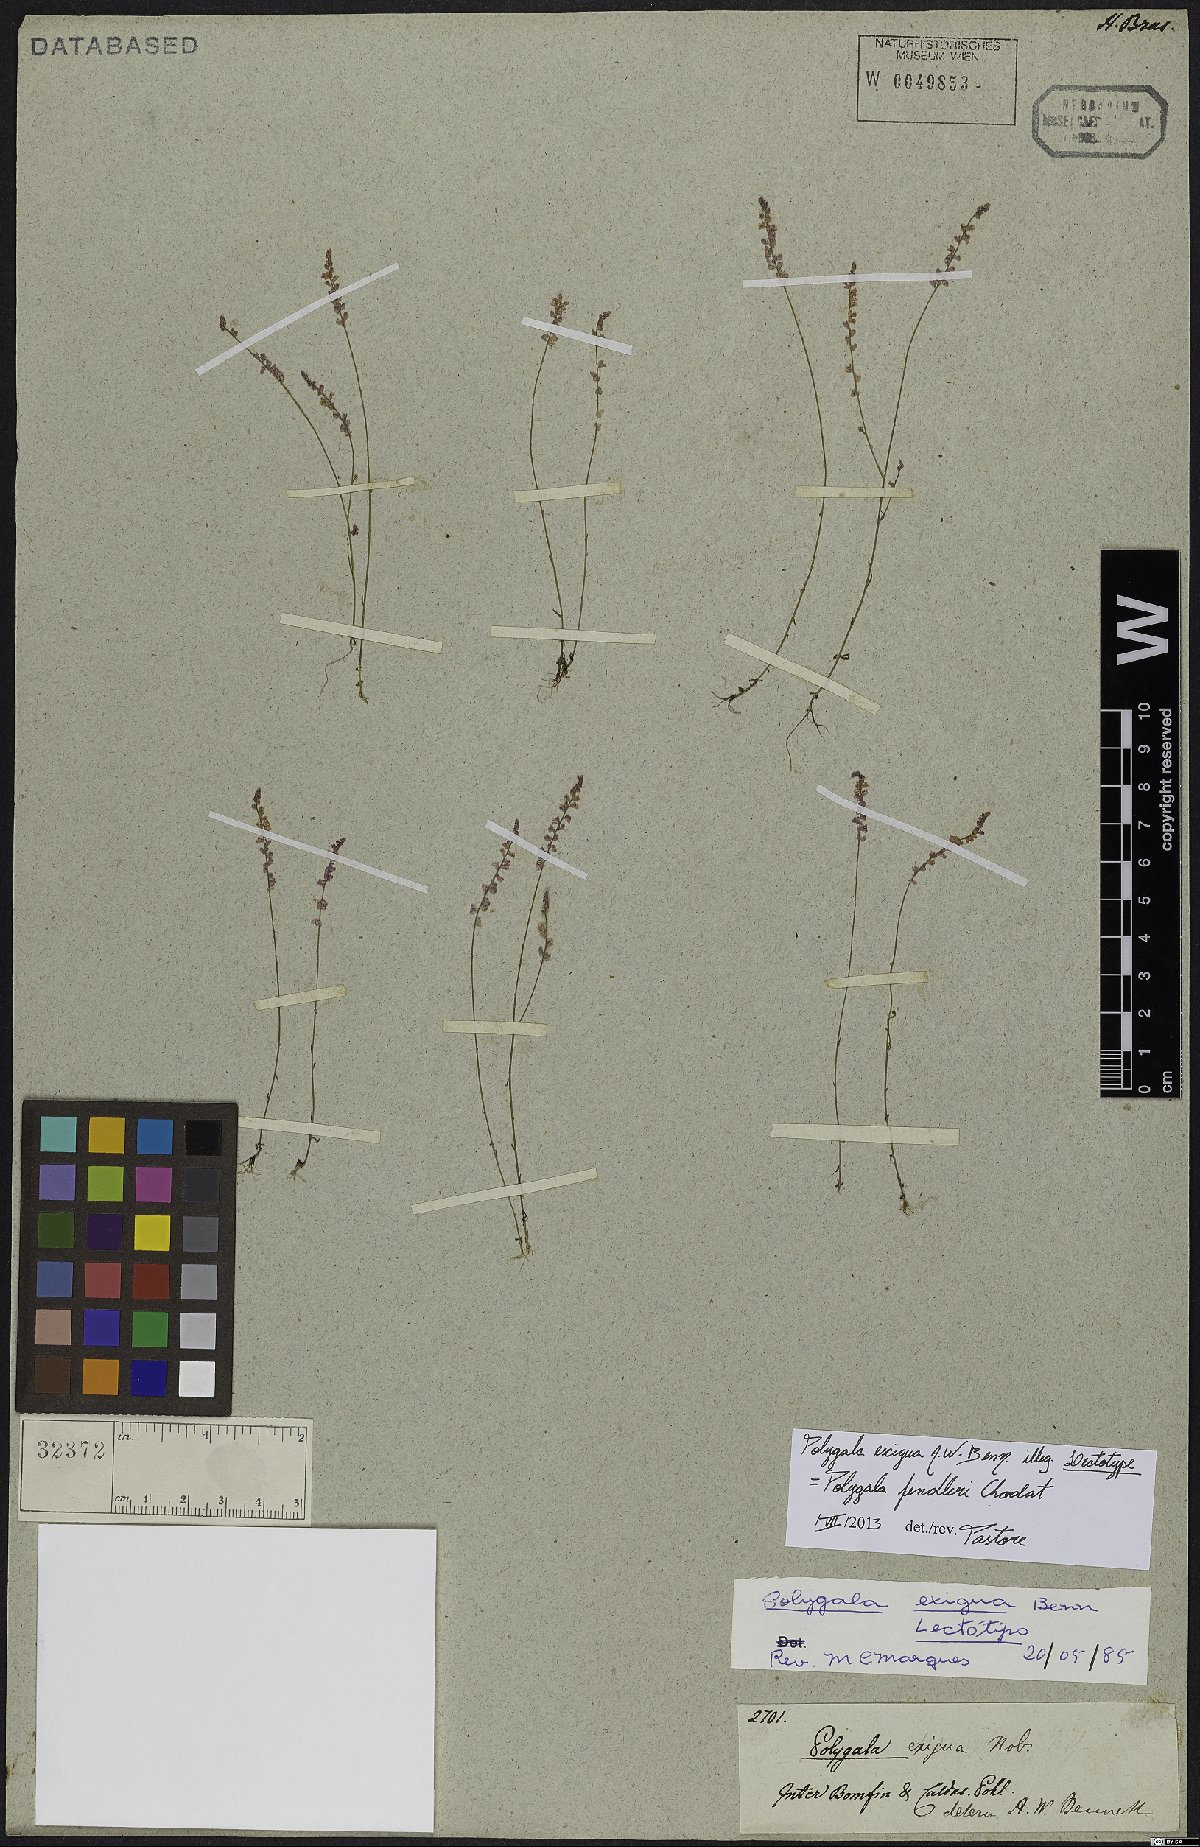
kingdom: Plantae
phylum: Tracheophyta
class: Magnoliopsida
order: Fabales
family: Polygalaceae
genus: Polygala
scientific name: Polygala fendleri
